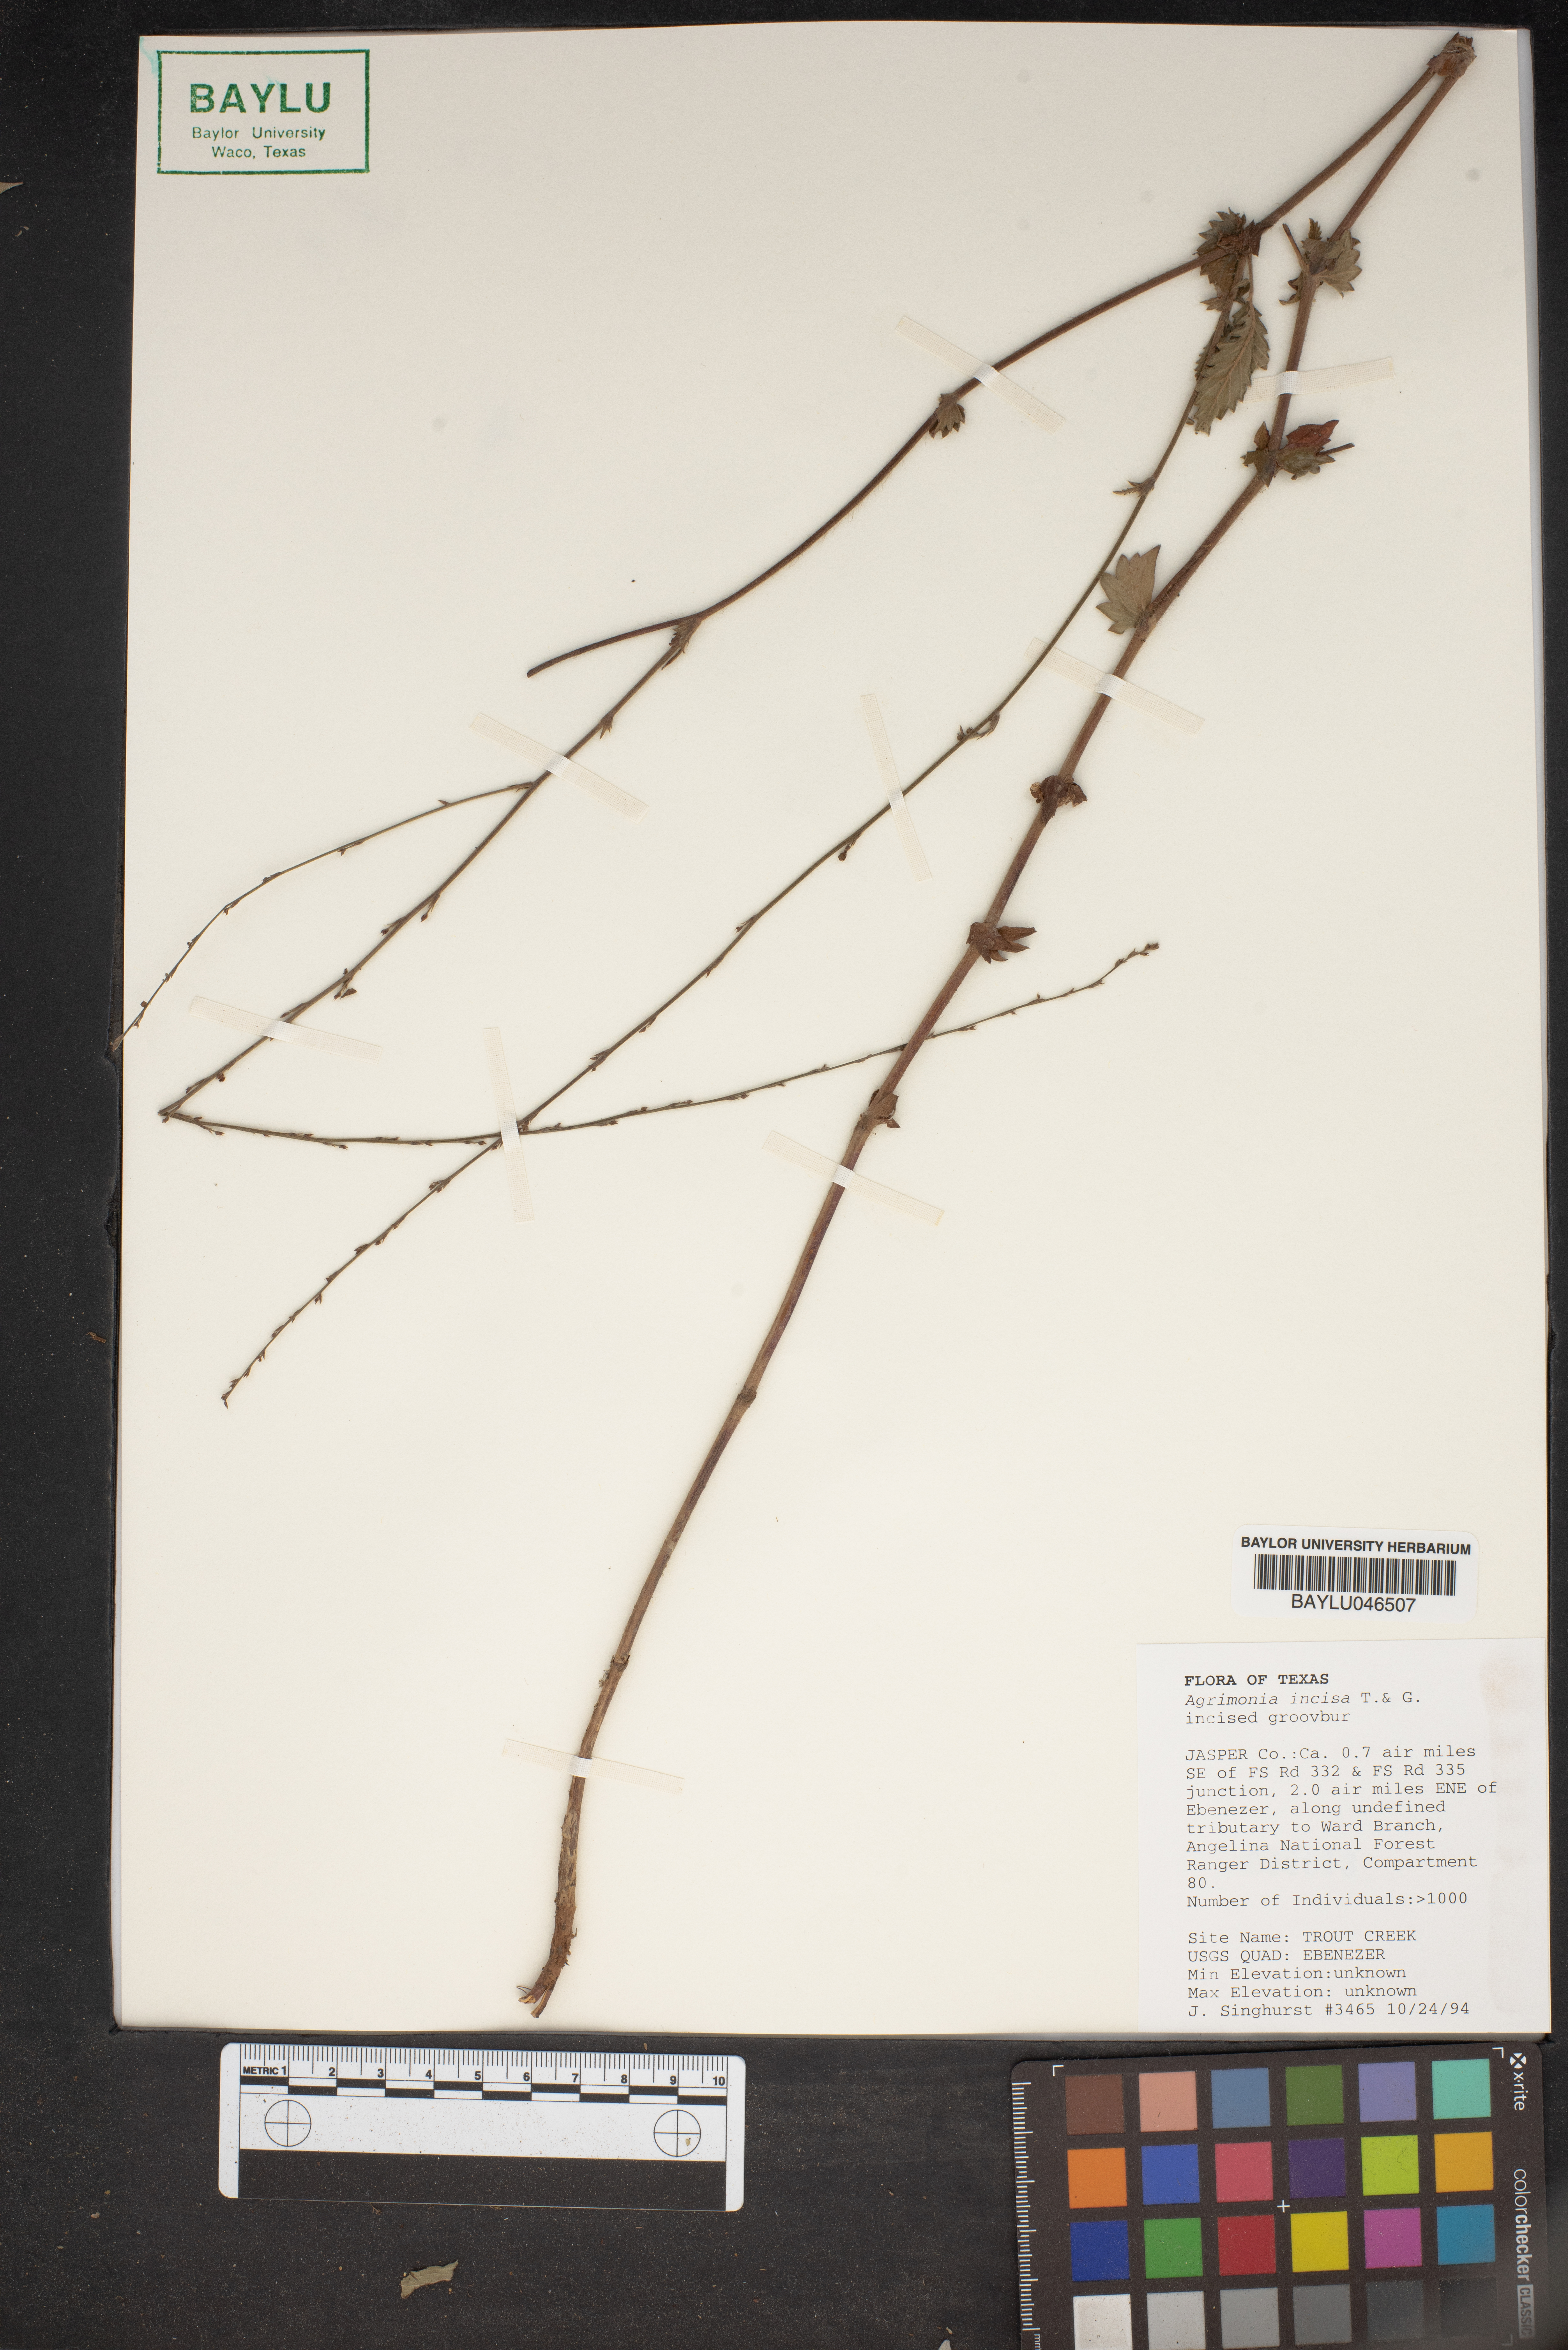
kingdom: Plantae
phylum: Tracheophyta
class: Magnoliopsida
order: Rosales
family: Rosaceae
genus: Agrimonia
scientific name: Agrimonia incisa
